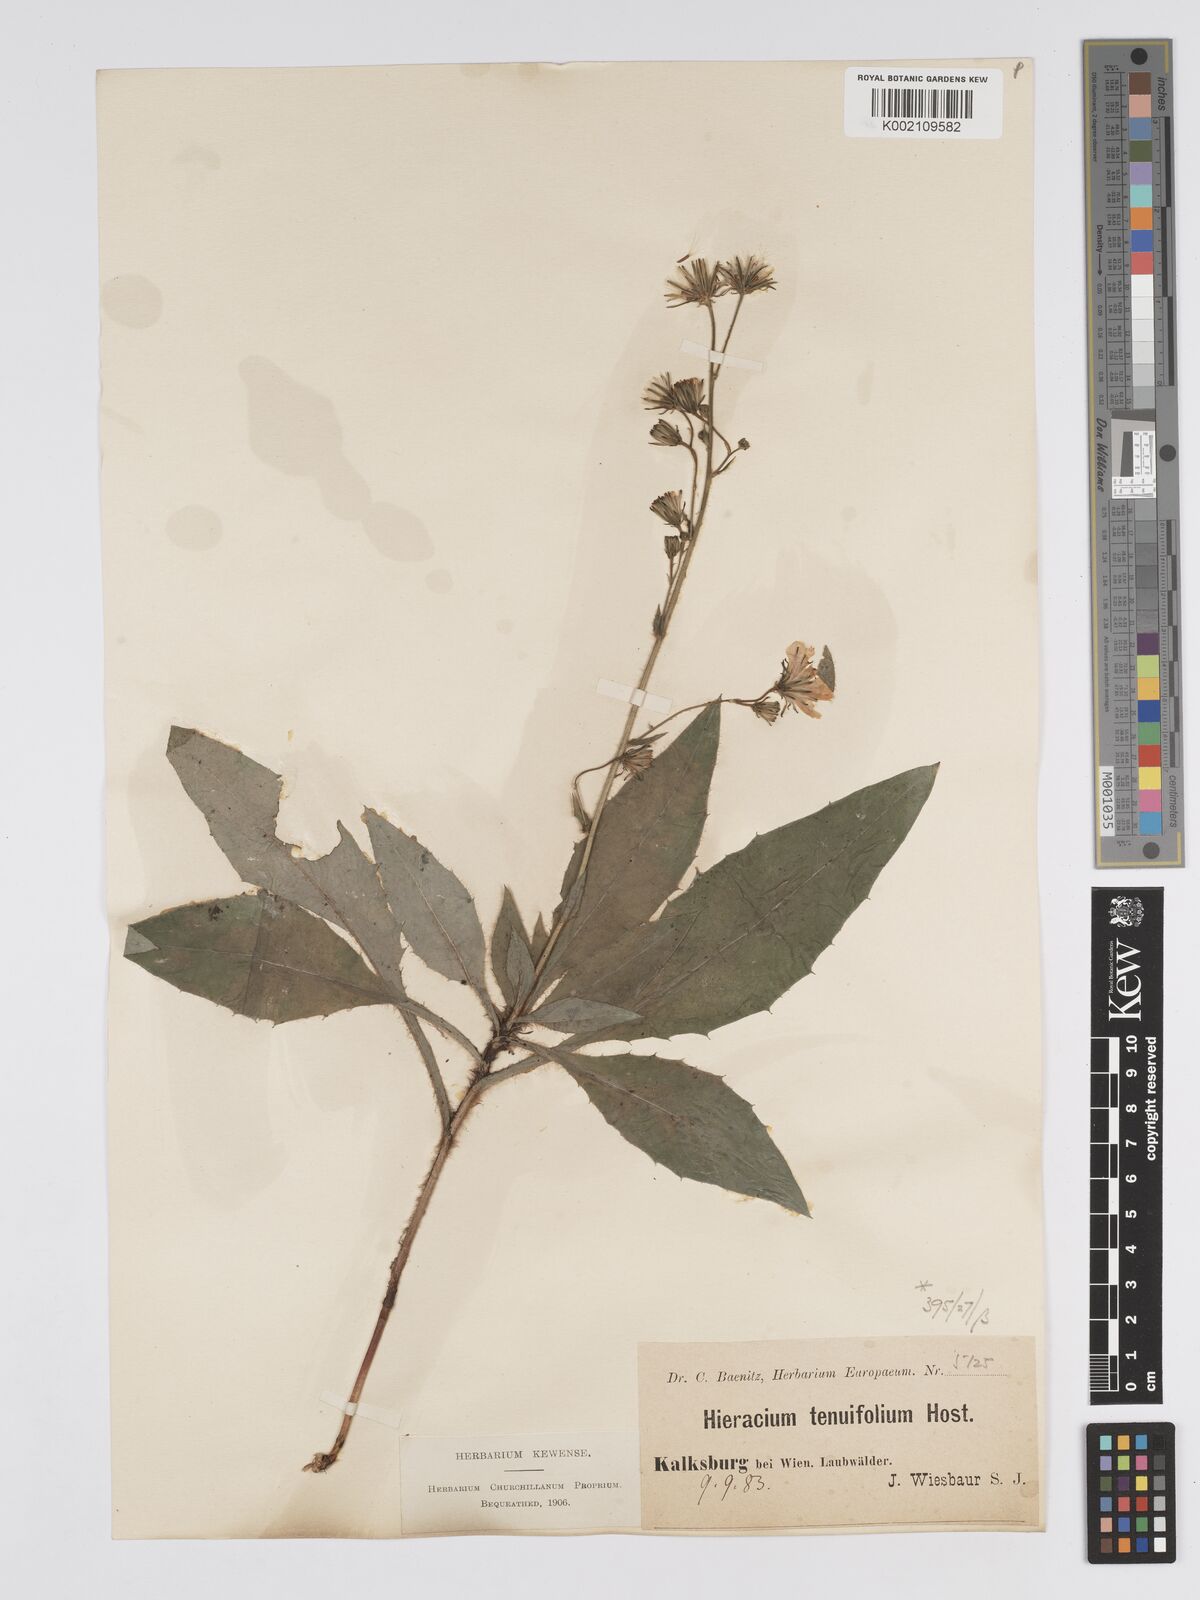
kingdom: Plantae
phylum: Tracheophyta
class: Magnoliopsida
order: Asterales
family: Asteraceae
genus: Hieracium
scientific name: Hieracium racemosum
